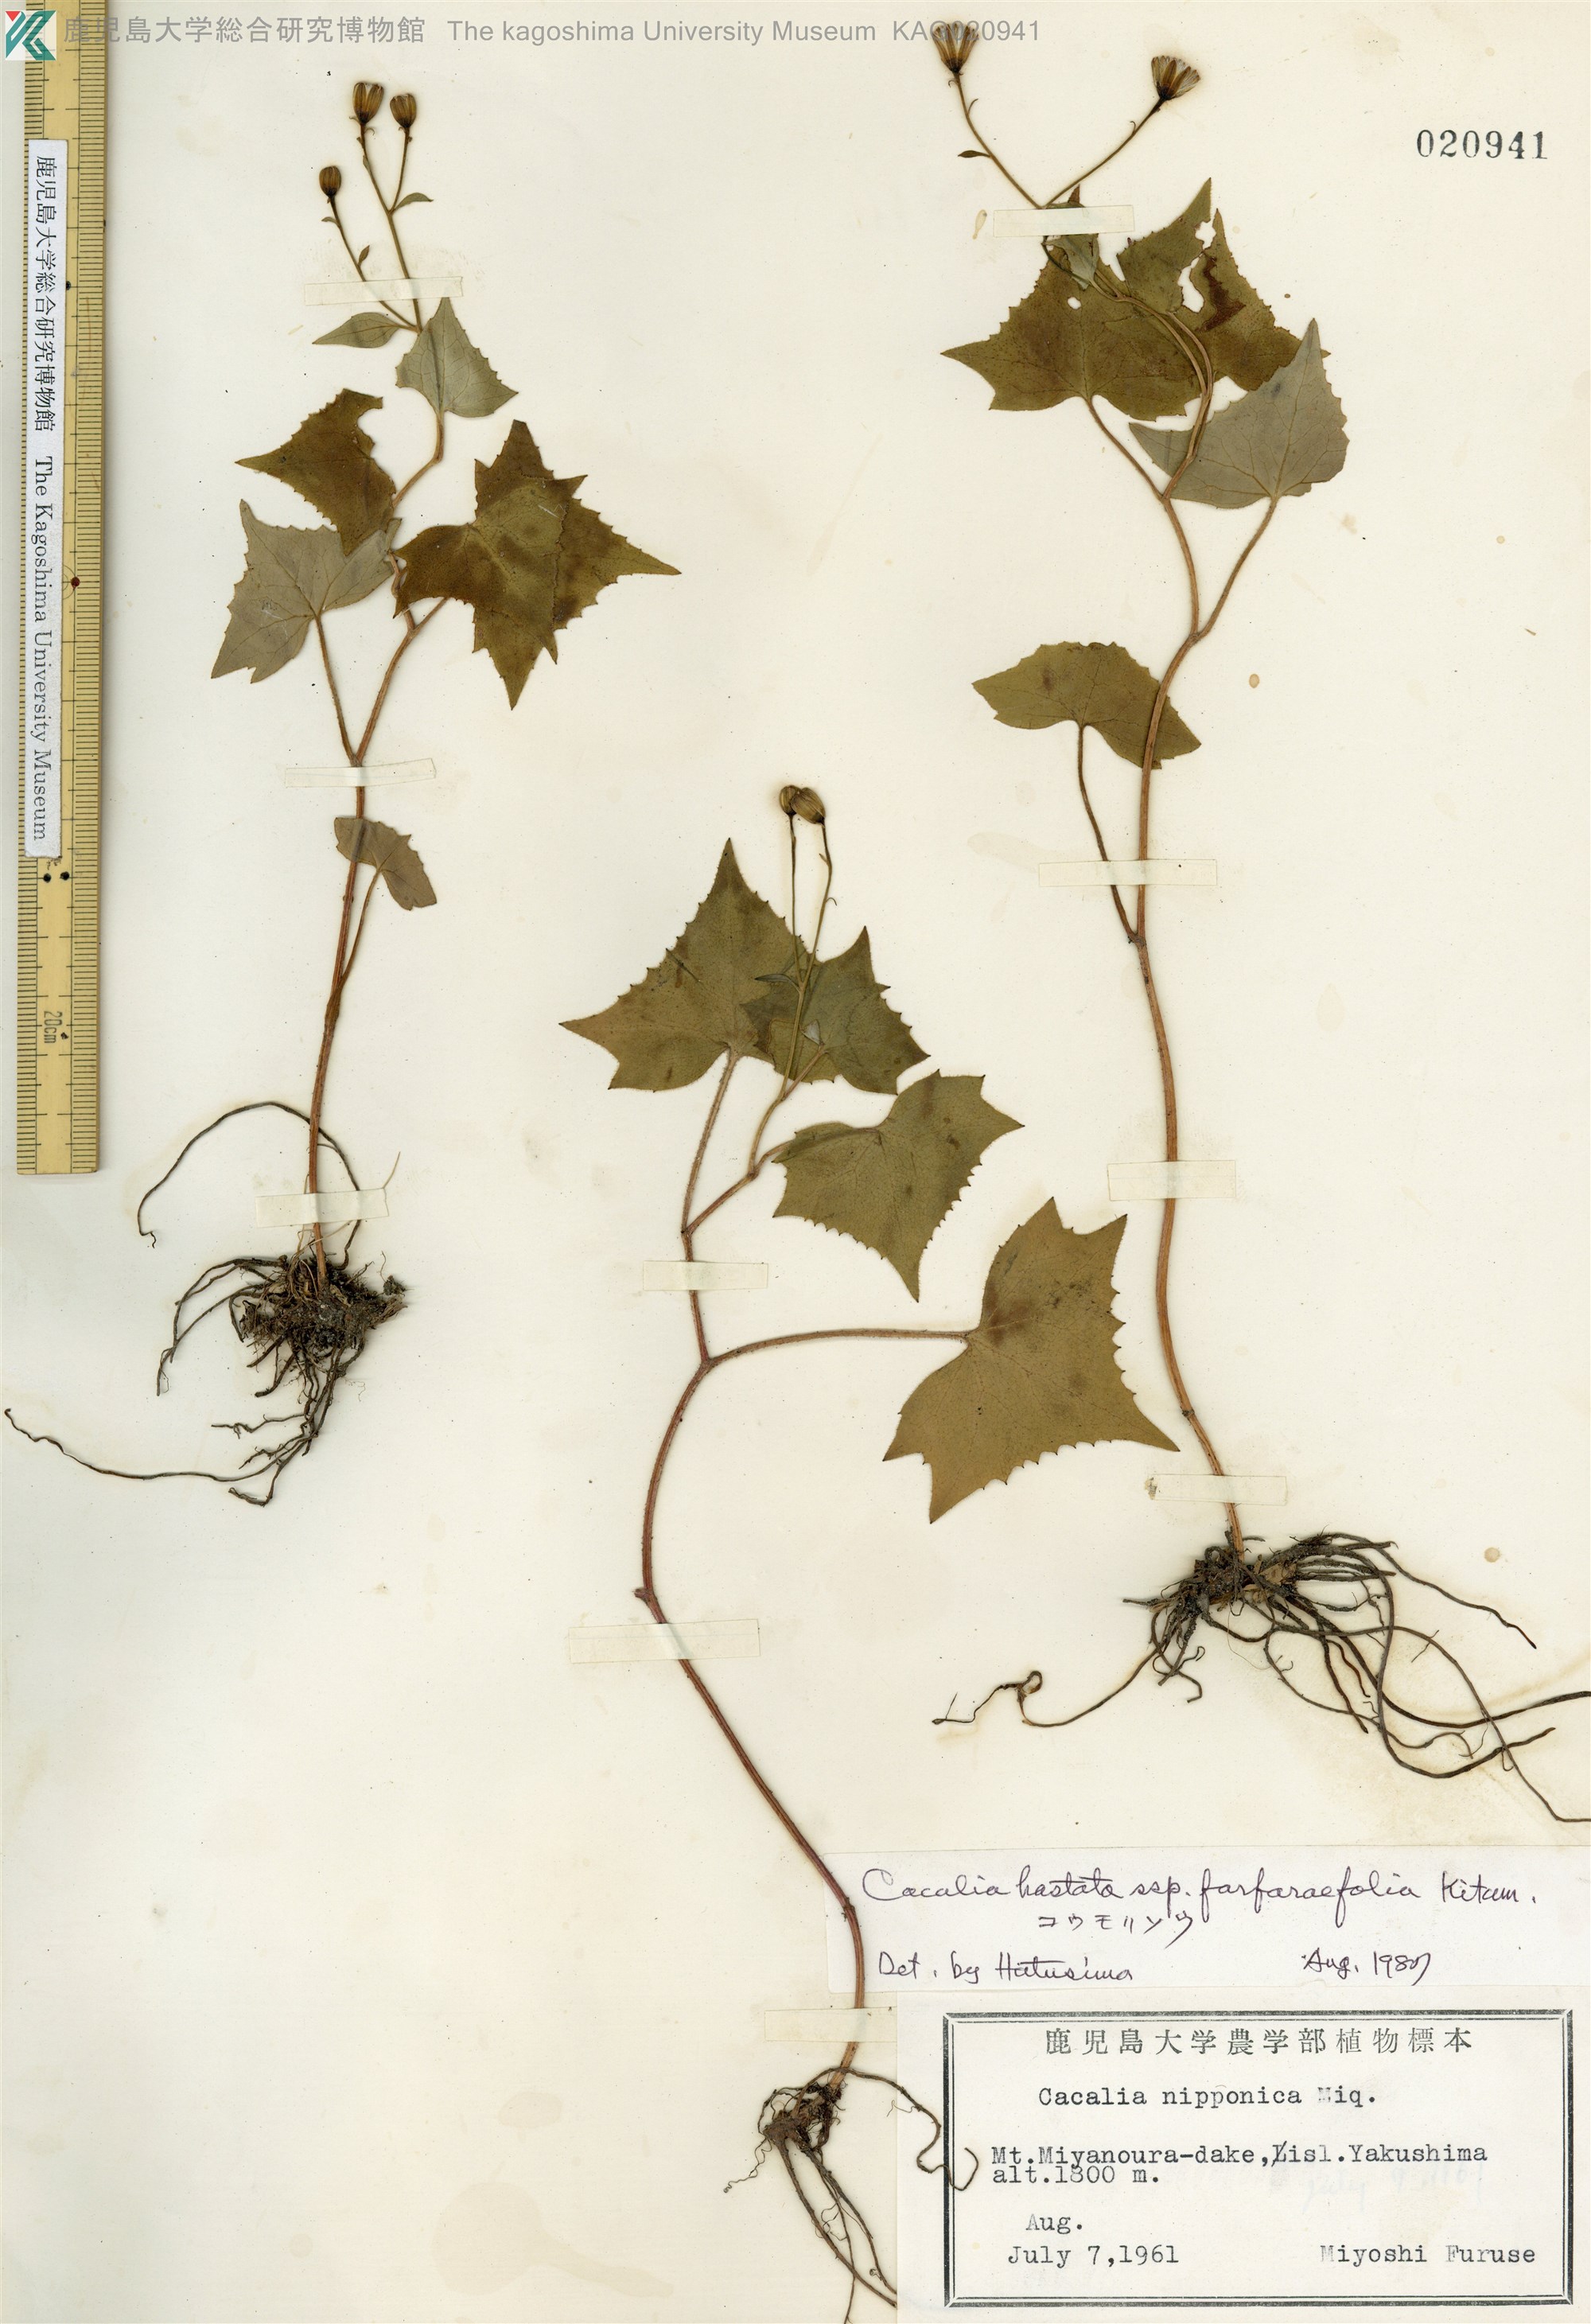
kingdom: Plantae
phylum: Tracheophyta
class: Magnoliopsida
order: Asterales
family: Asteraceae
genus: Parasenecio
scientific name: Parasenecio yakusimensis
